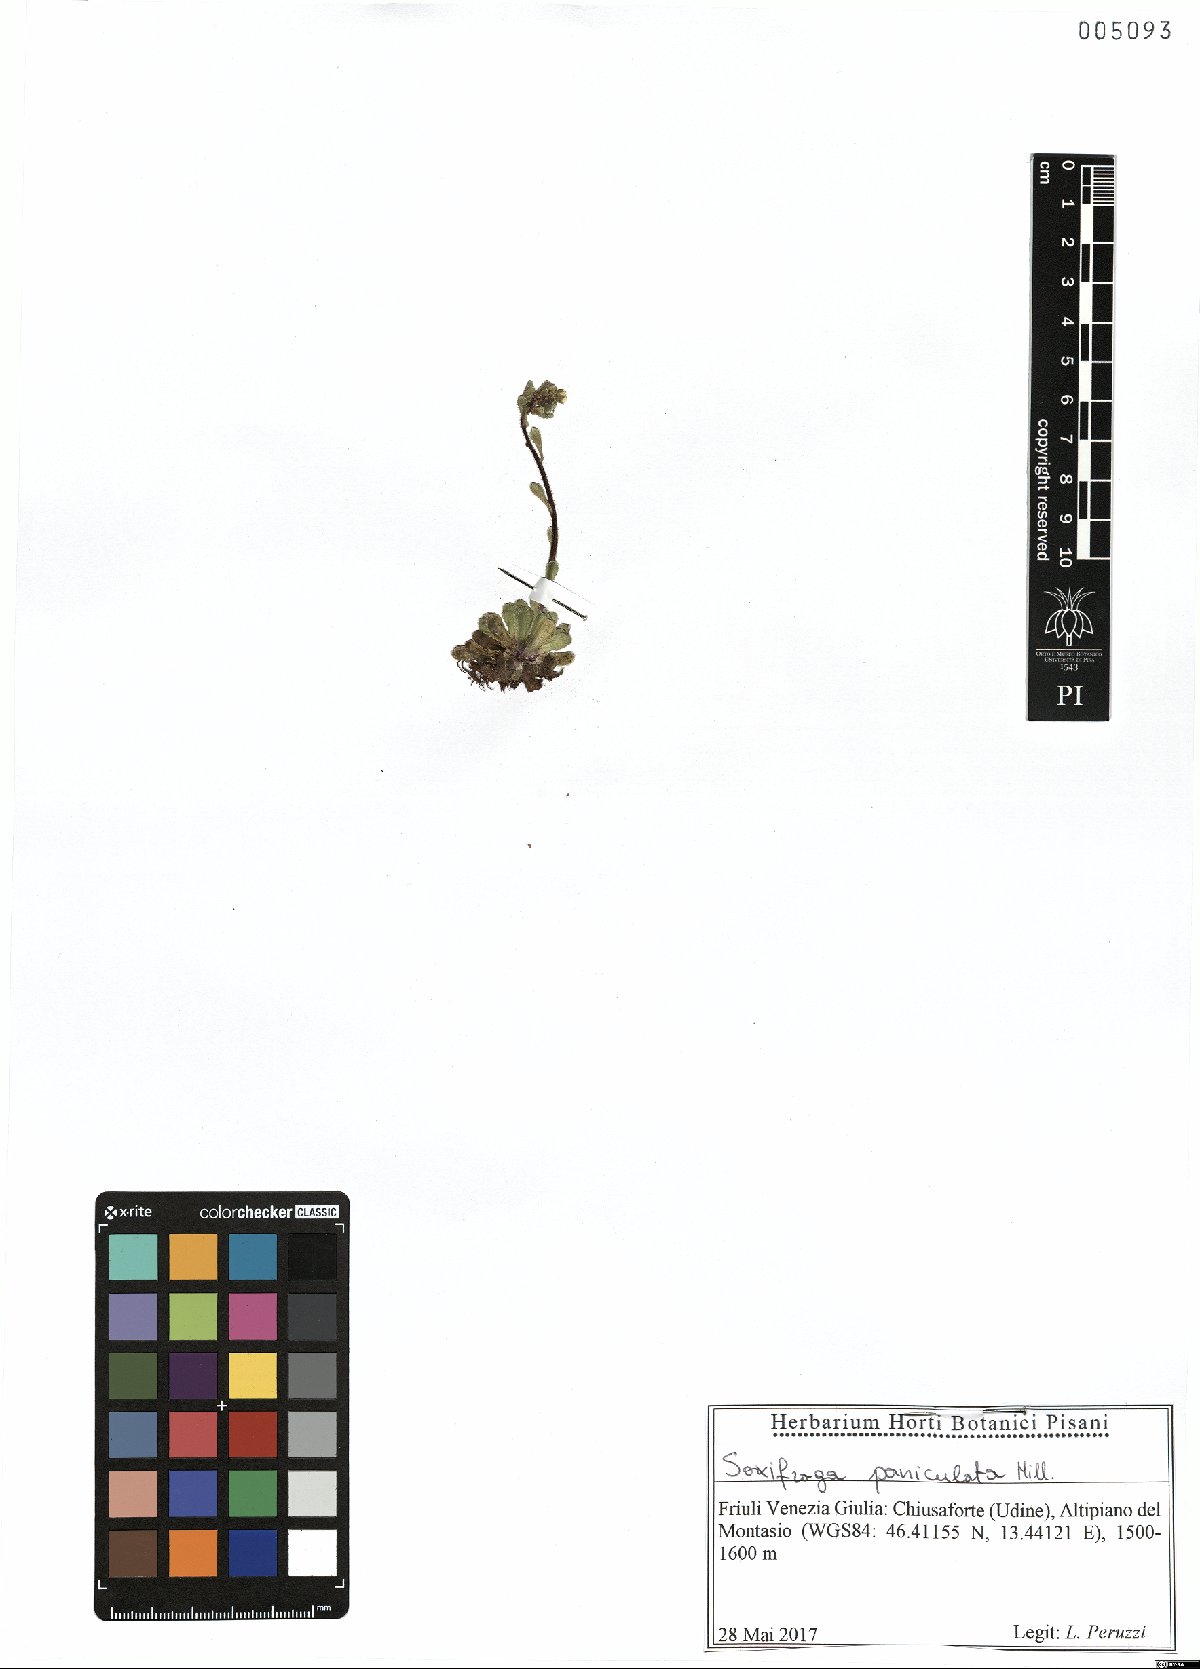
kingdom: Plantae
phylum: Tracheophyta
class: Magnoliopsida
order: Saxifragales
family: Saxifragaceae
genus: Saxifraga
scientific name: Saxifraga paniculata
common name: Livelong saxifrage
